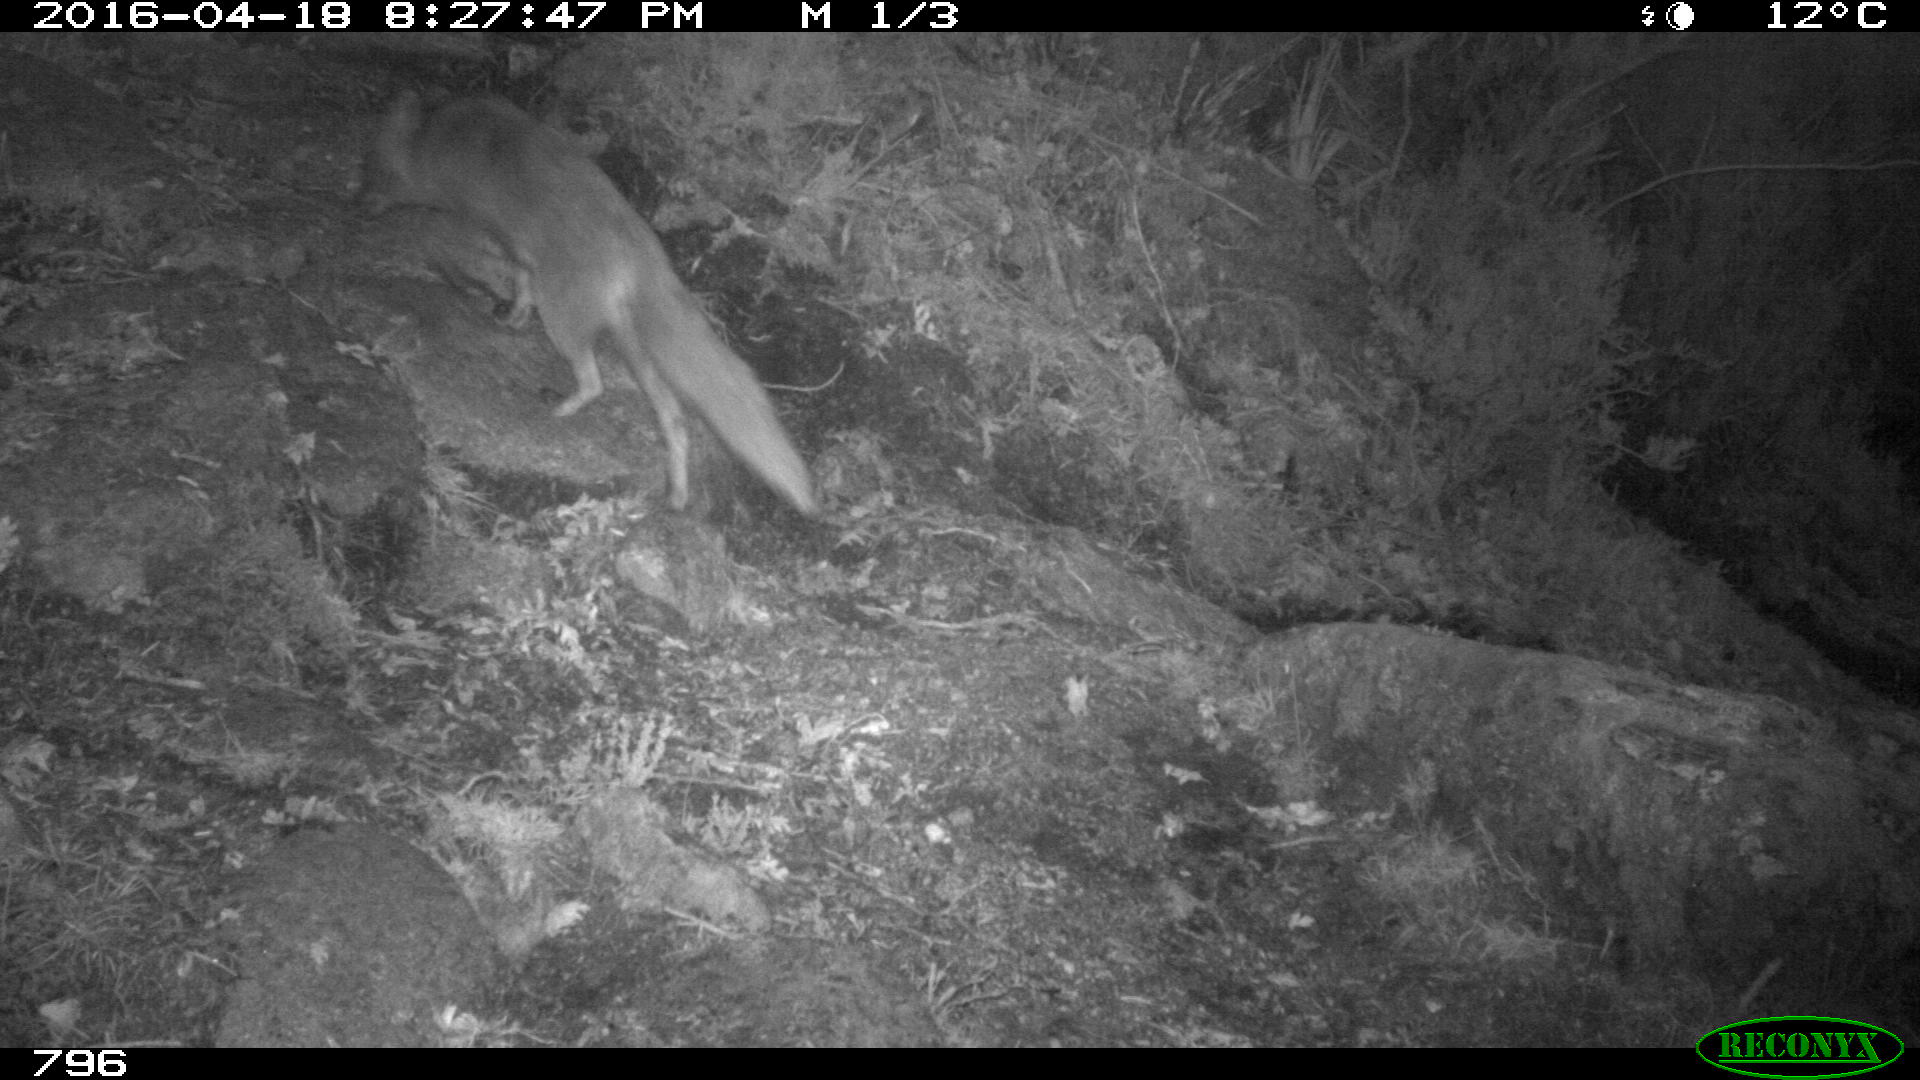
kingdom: Animalia
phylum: Chordata
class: Mammalia
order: Carnivora
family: Canidae
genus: Vulpes
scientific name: Vulpes vulpes
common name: Red fox
